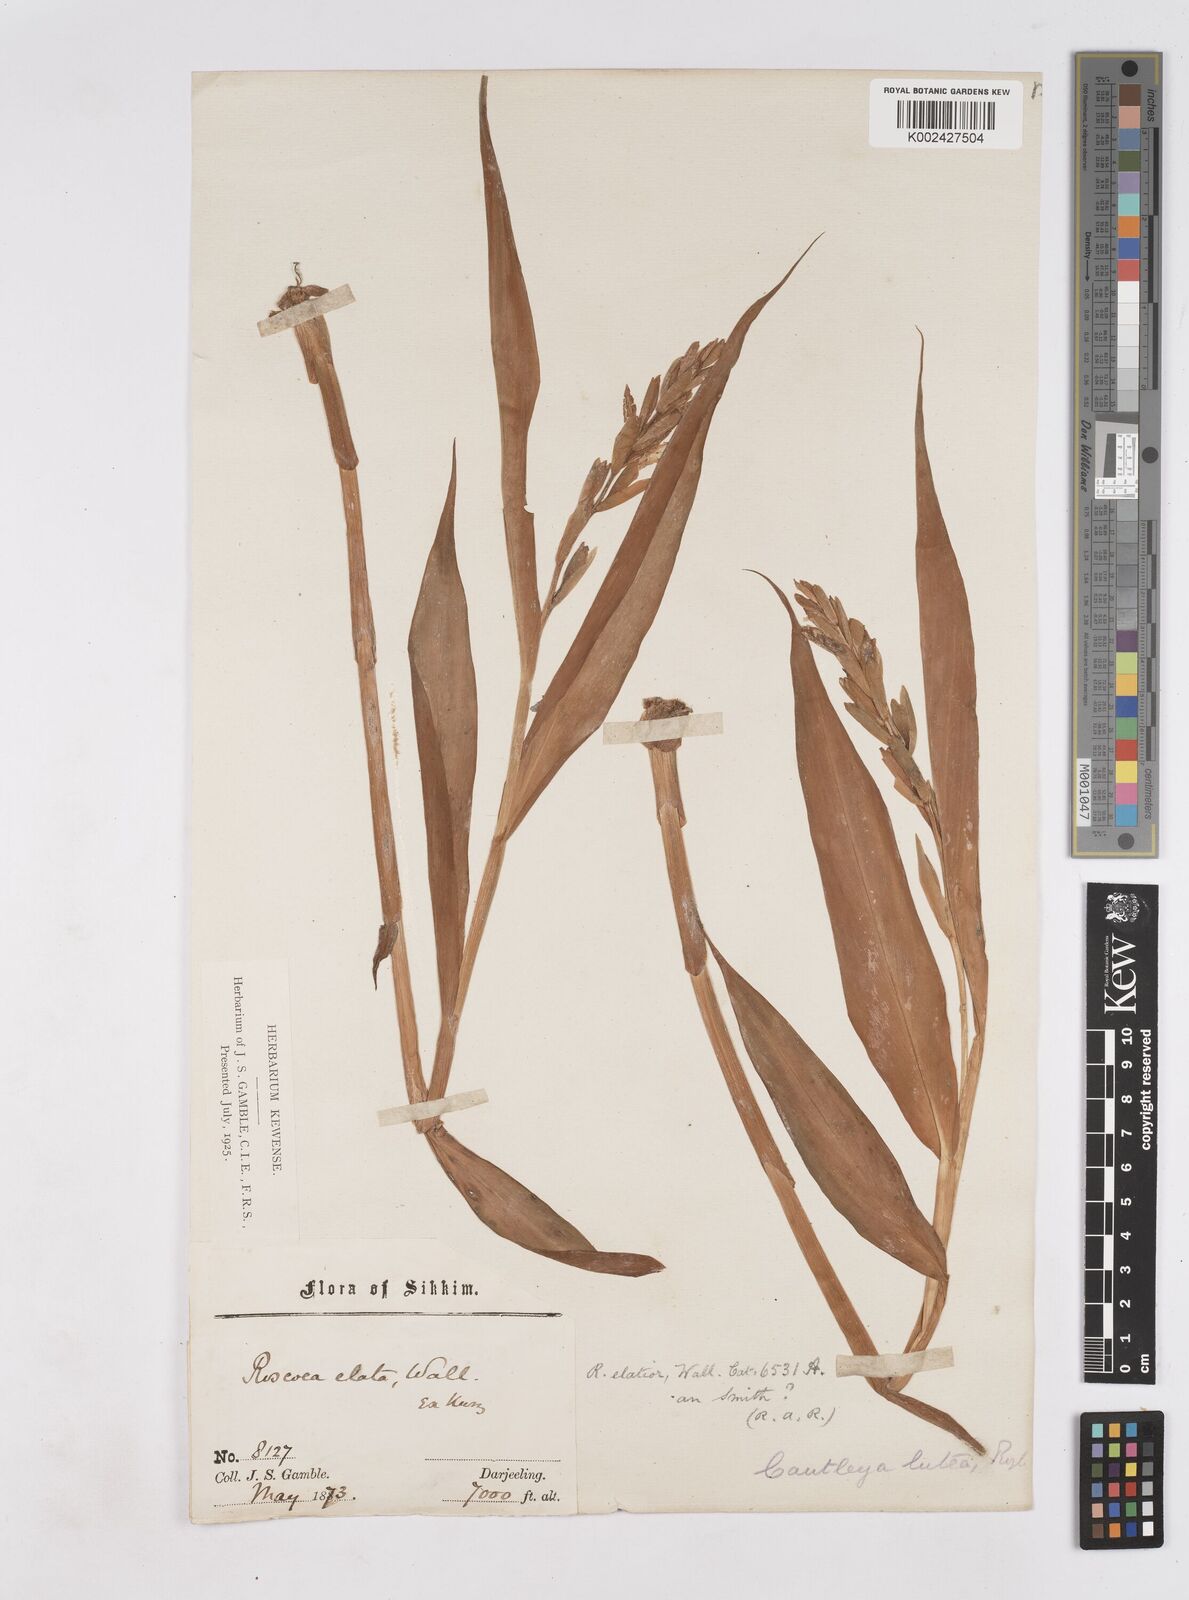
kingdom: Plantae
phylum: Tracheophyta
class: Liliopsida
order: Zingiberales
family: Zingiberaceae
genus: Cautleya
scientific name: Cautleya gracilis
